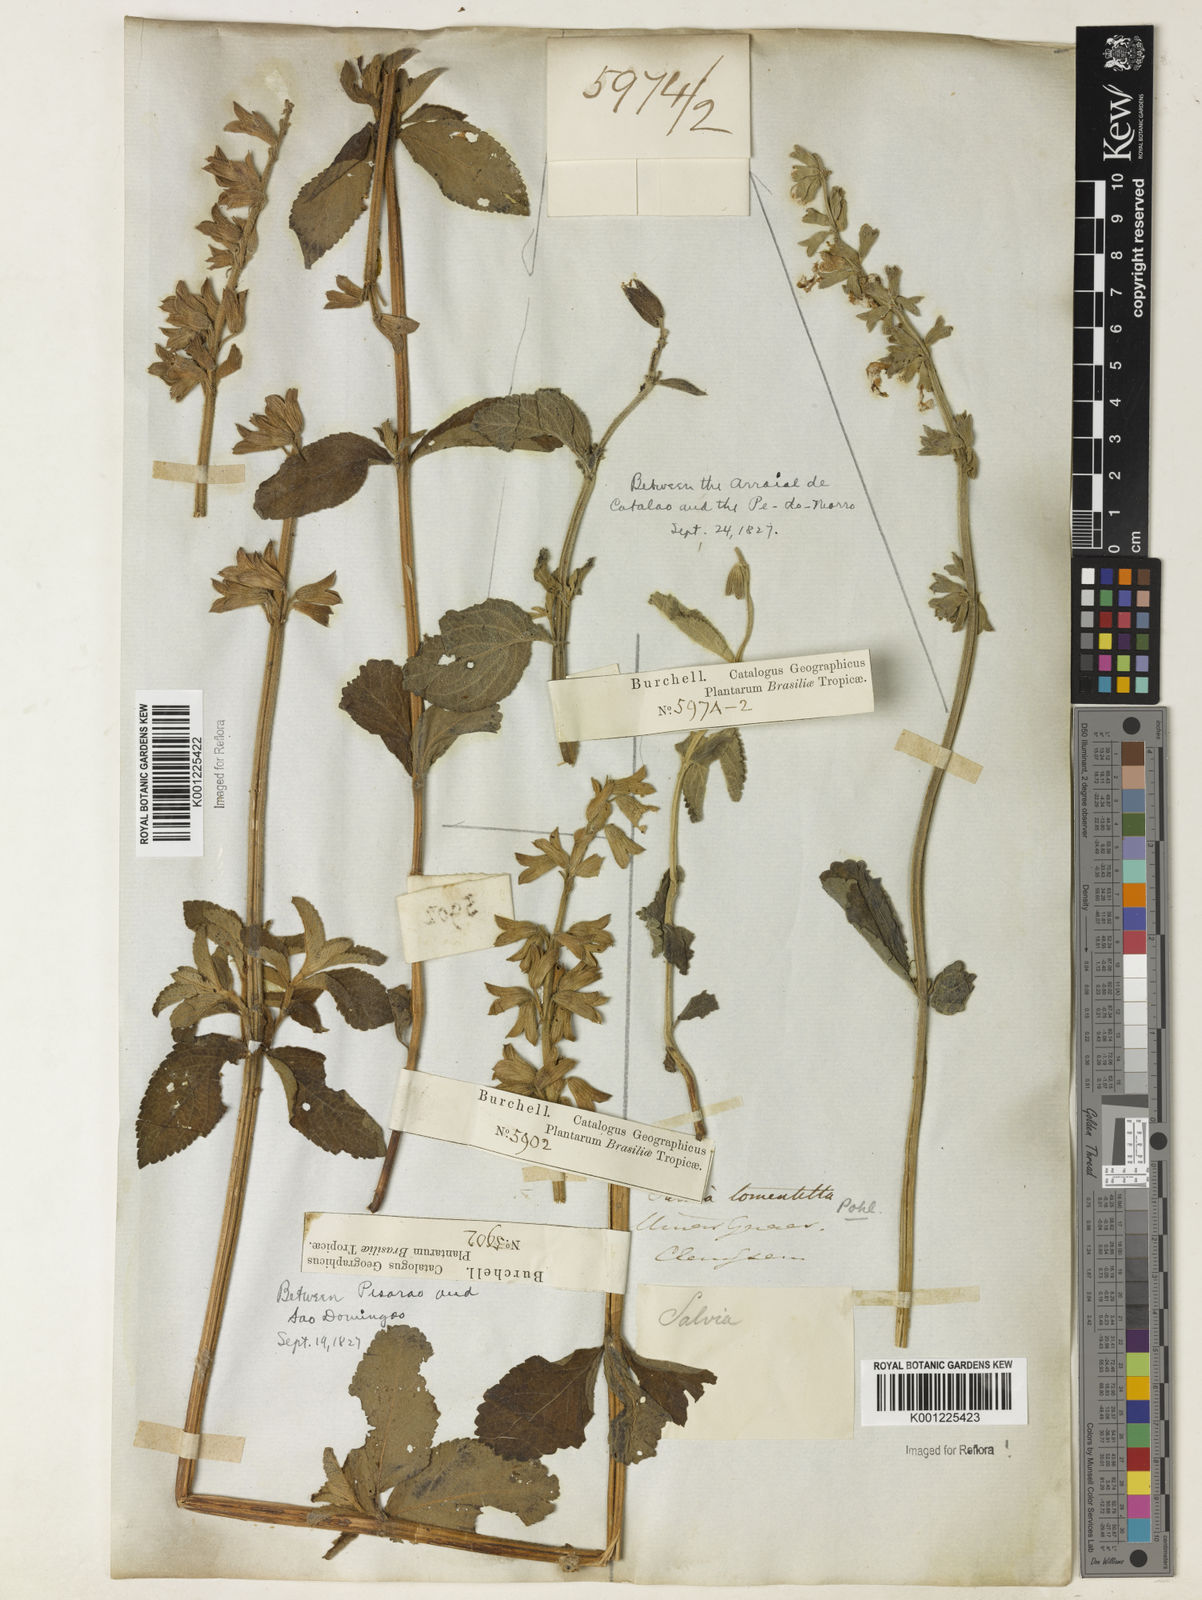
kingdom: Plantae
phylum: Tracheophyta
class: Magnoliopsida
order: Lamiales
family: Lamiaceae
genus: Salvia
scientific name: Salvia tomentella
